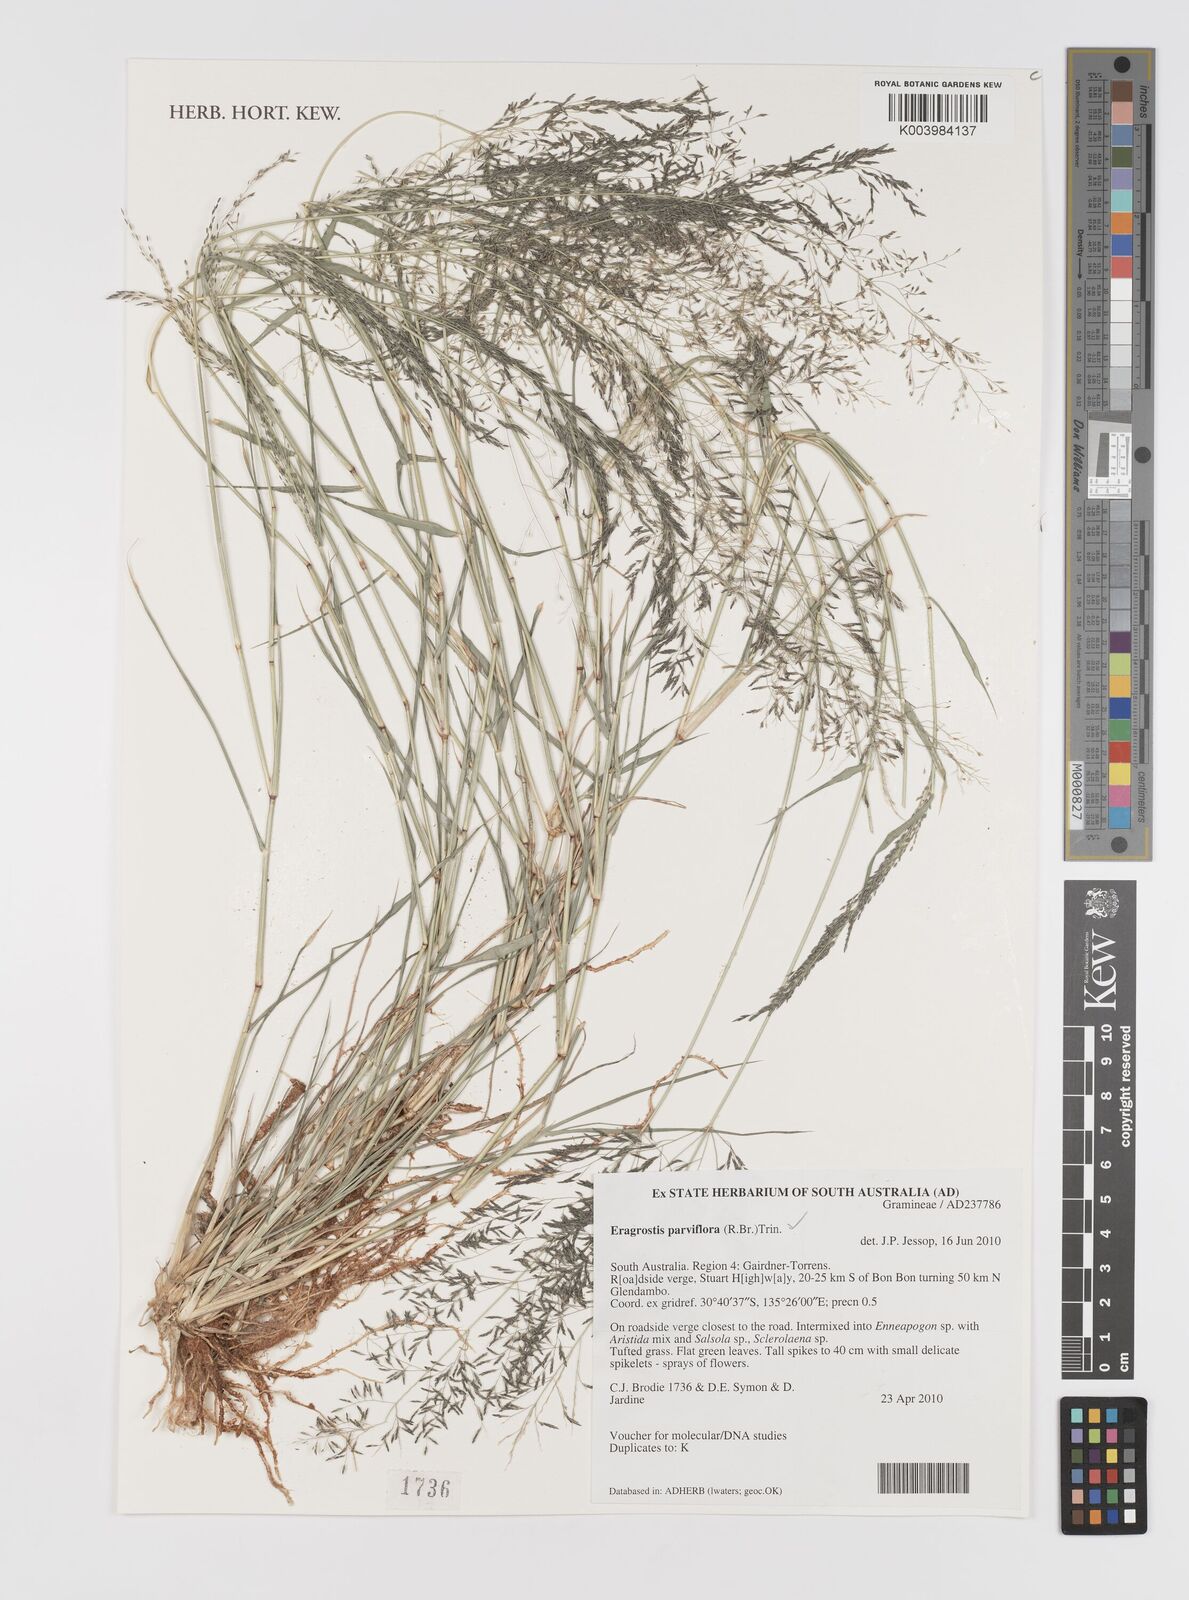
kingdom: Plantae
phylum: Tracheophyta
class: Liliopsida
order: Poales
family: Poaceae
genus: Eragrostis
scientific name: Eragrostis parviflora
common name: Weeping love-grass
